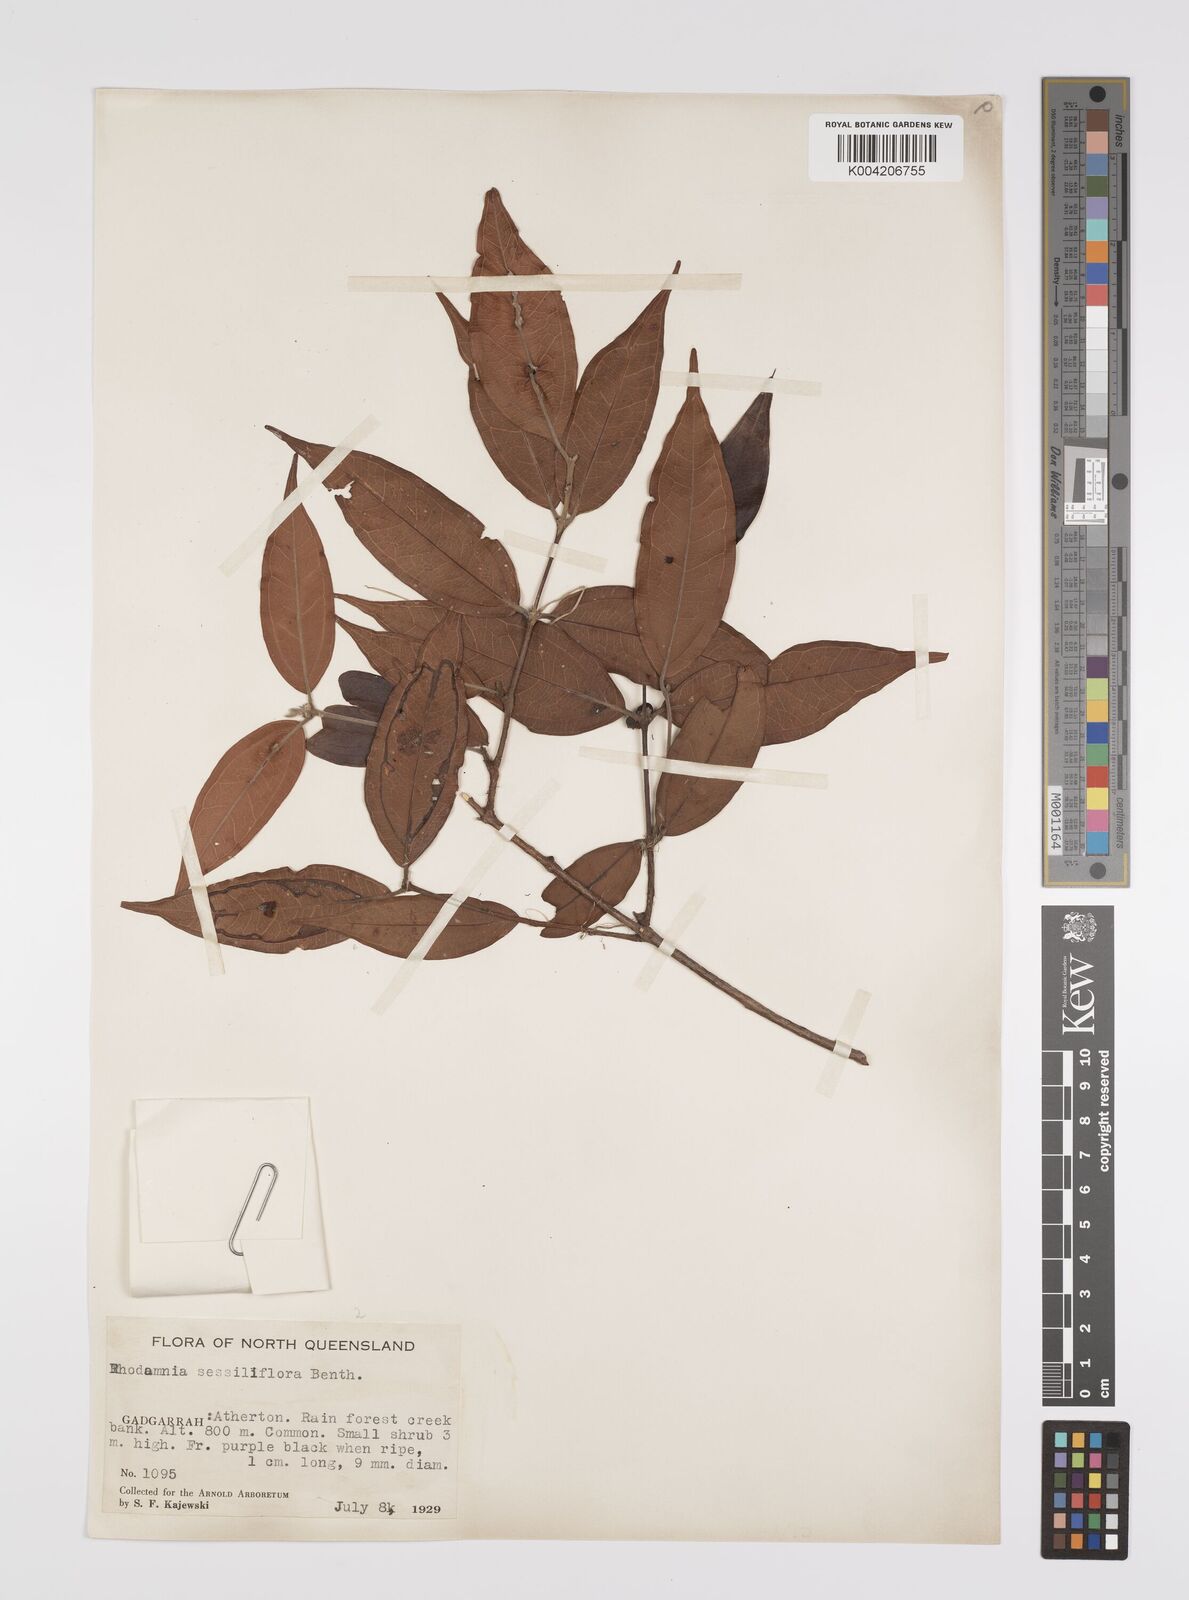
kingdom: Plantae
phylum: Tracheophyta
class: Magnoliopsida
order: Myrtales
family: Myrtaceae
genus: Rhodamnia
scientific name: Rhodamnia sessiliflora
